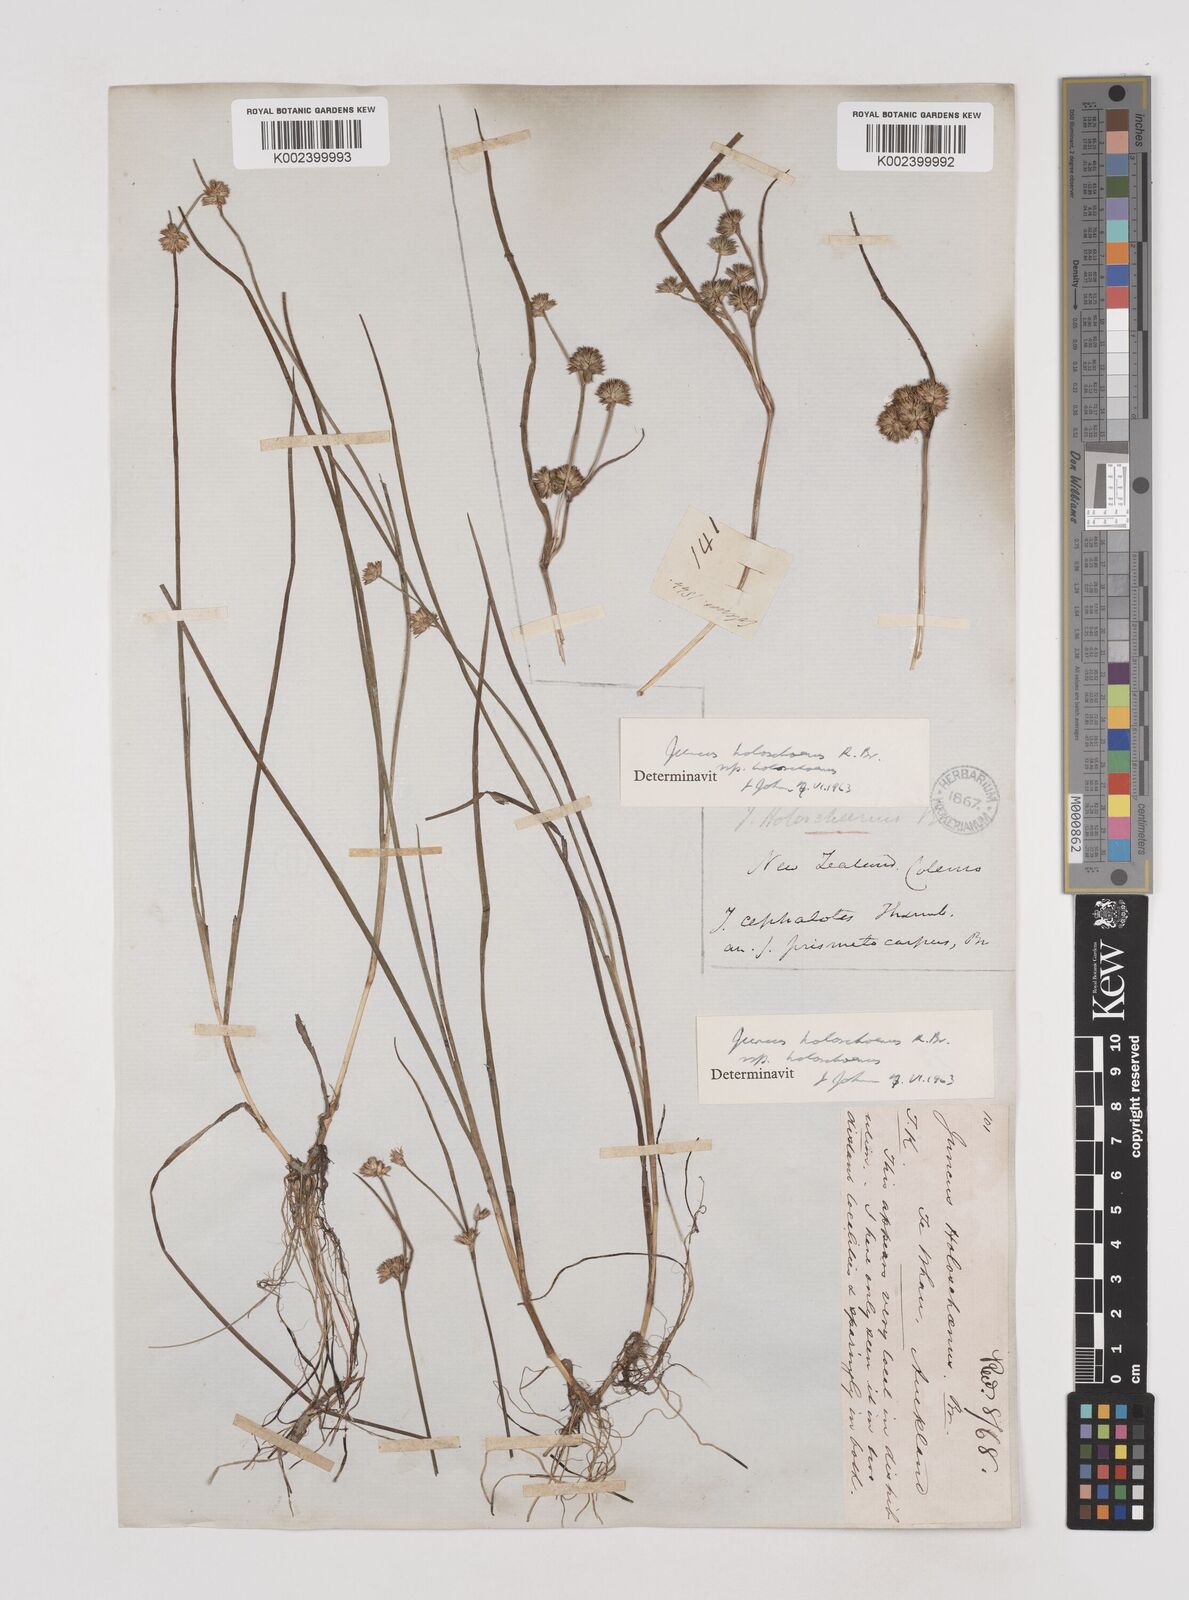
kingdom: Plantae
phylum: Tracheophyta
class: Liliopsida
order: Poales
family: Juncaceae
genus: Juncus
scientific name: Juncus holoschoenus
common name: Joint-leaf rush
